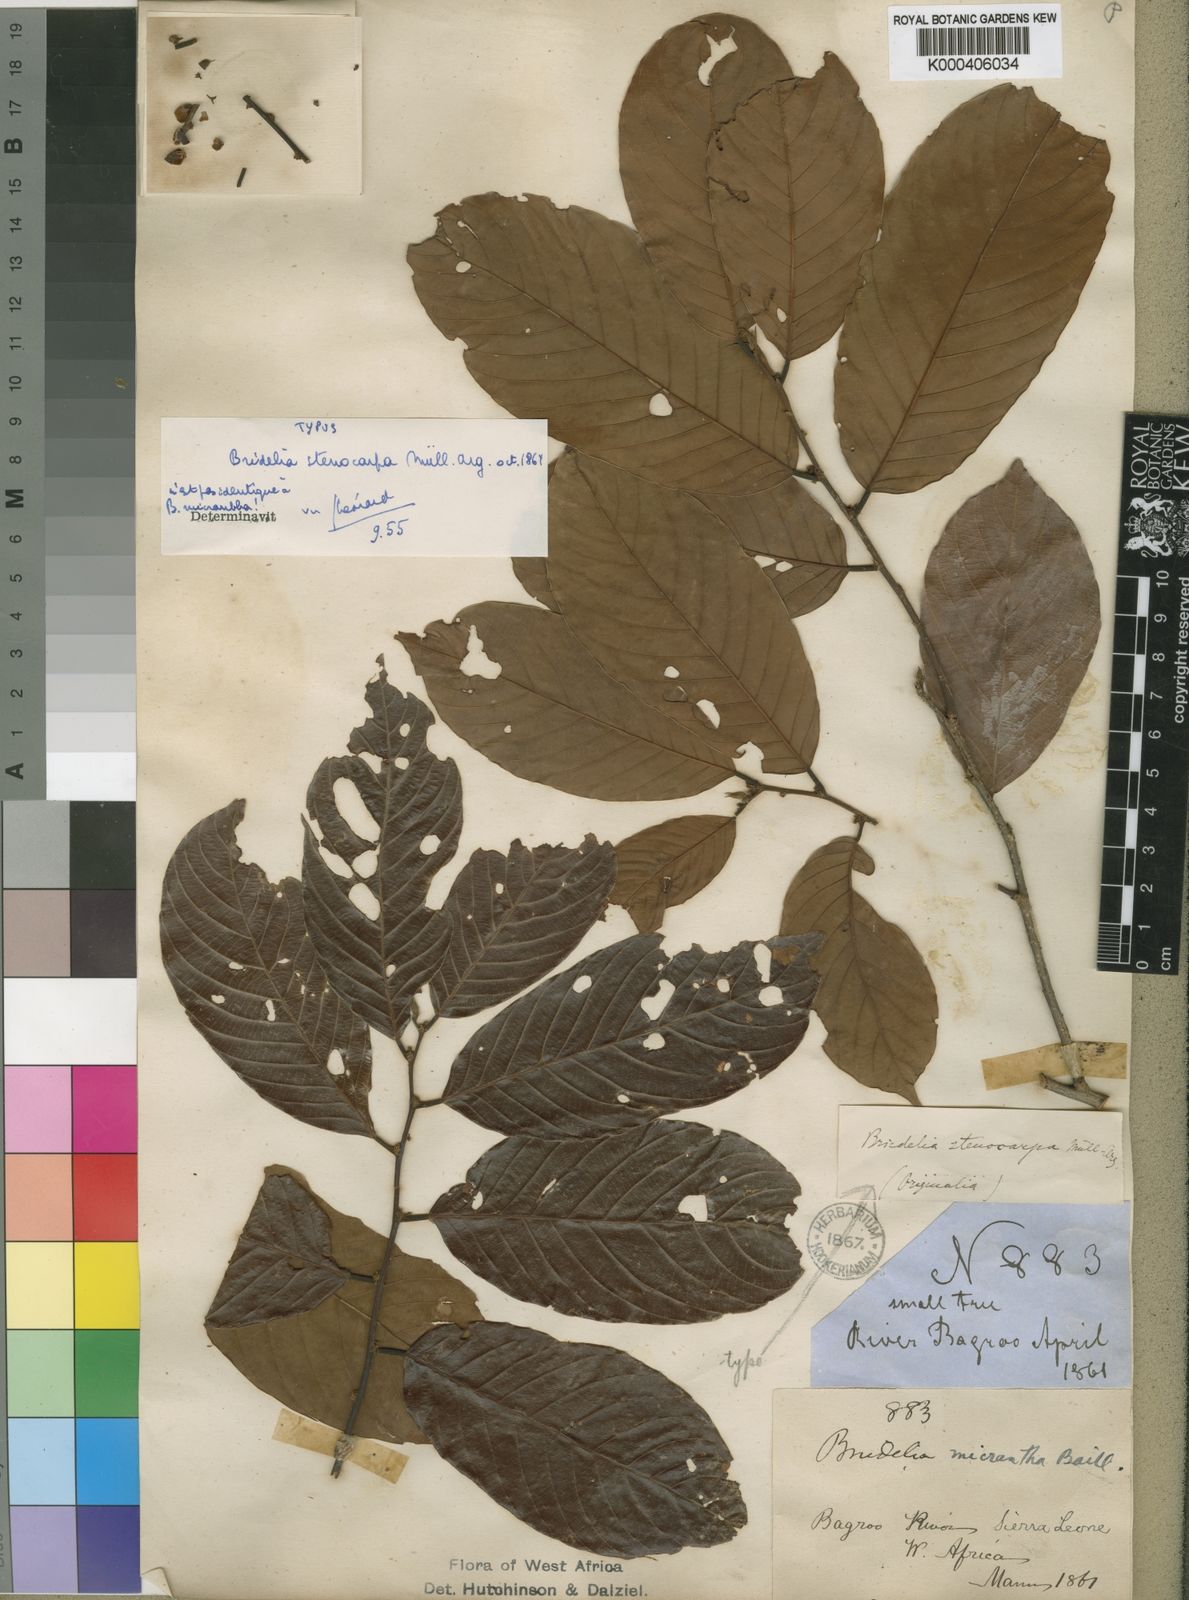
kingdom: Plantae
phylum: Tracheophyta
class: Magnoliopsida
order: Malpighiales
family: Phyllanthaceae
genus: Bridelia
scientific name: Bridelia micrantha
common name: Bridelia
